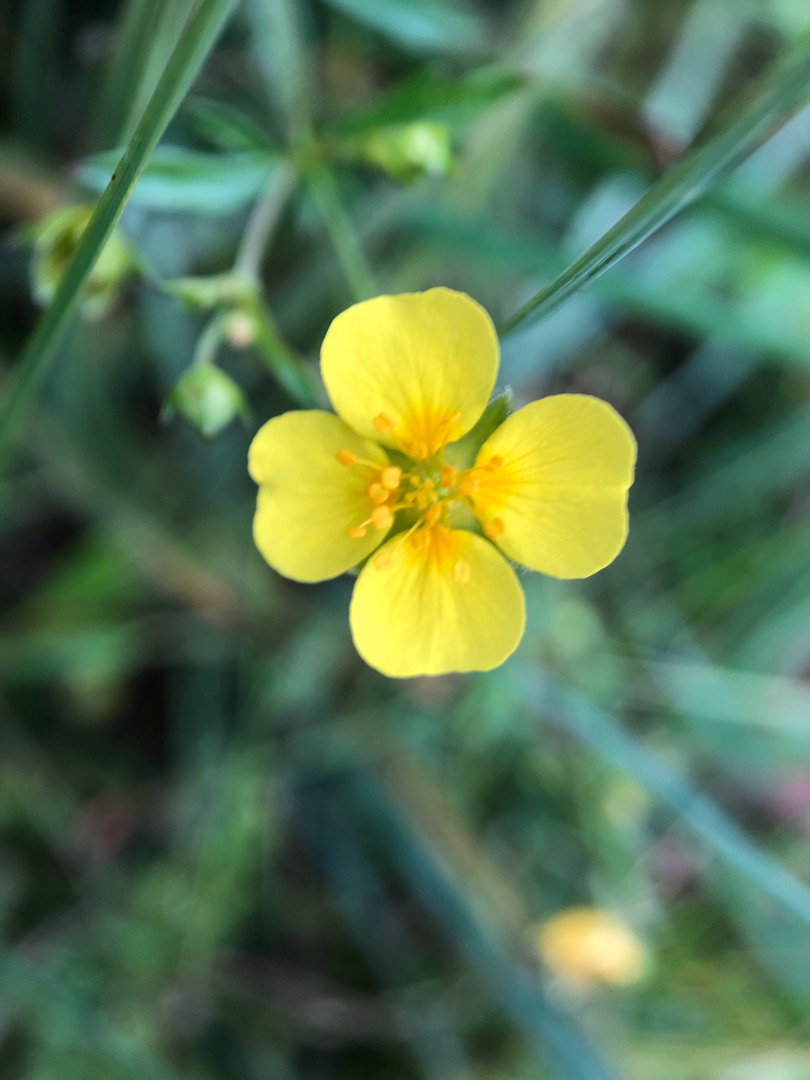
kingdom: Plantae
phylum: Tracheophyta
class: Magnoliopsida
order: Rosales
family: Rosaceae
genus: Potentilla
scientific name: Potentilla erecta
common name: Tormentil
